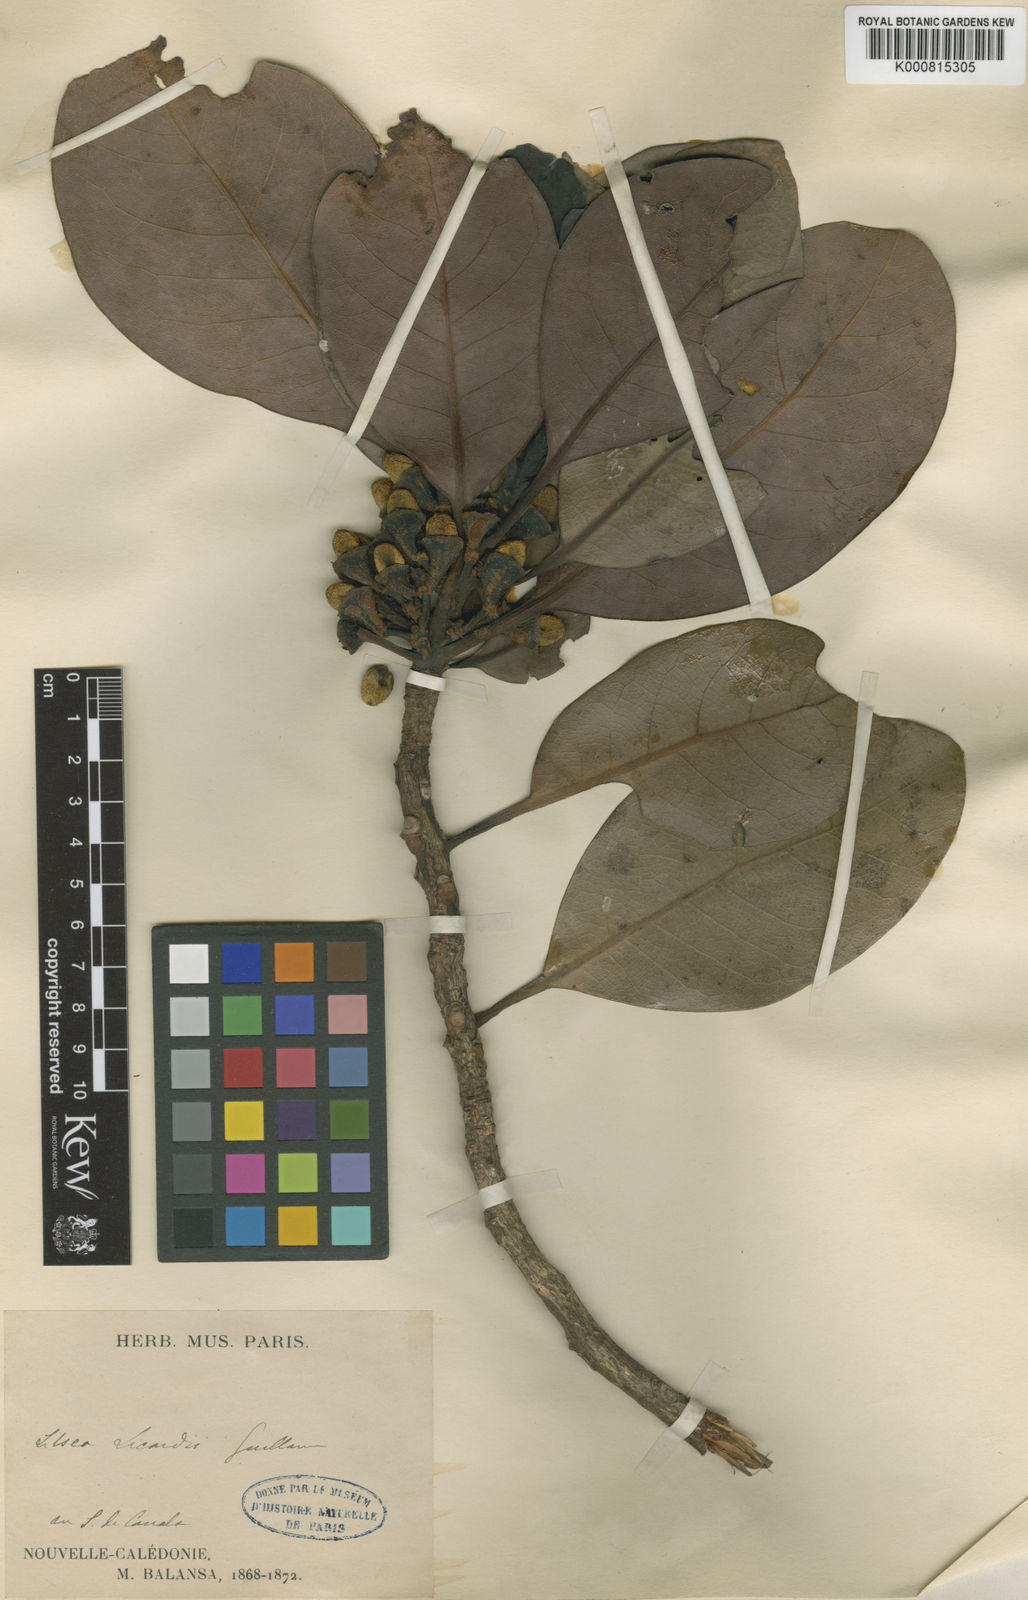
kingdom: Plantae
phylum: Tracheophyta
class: Magnoliopsida
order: Laurales
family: Lauraceae
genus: Litsea
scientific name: Litsea lecardii
